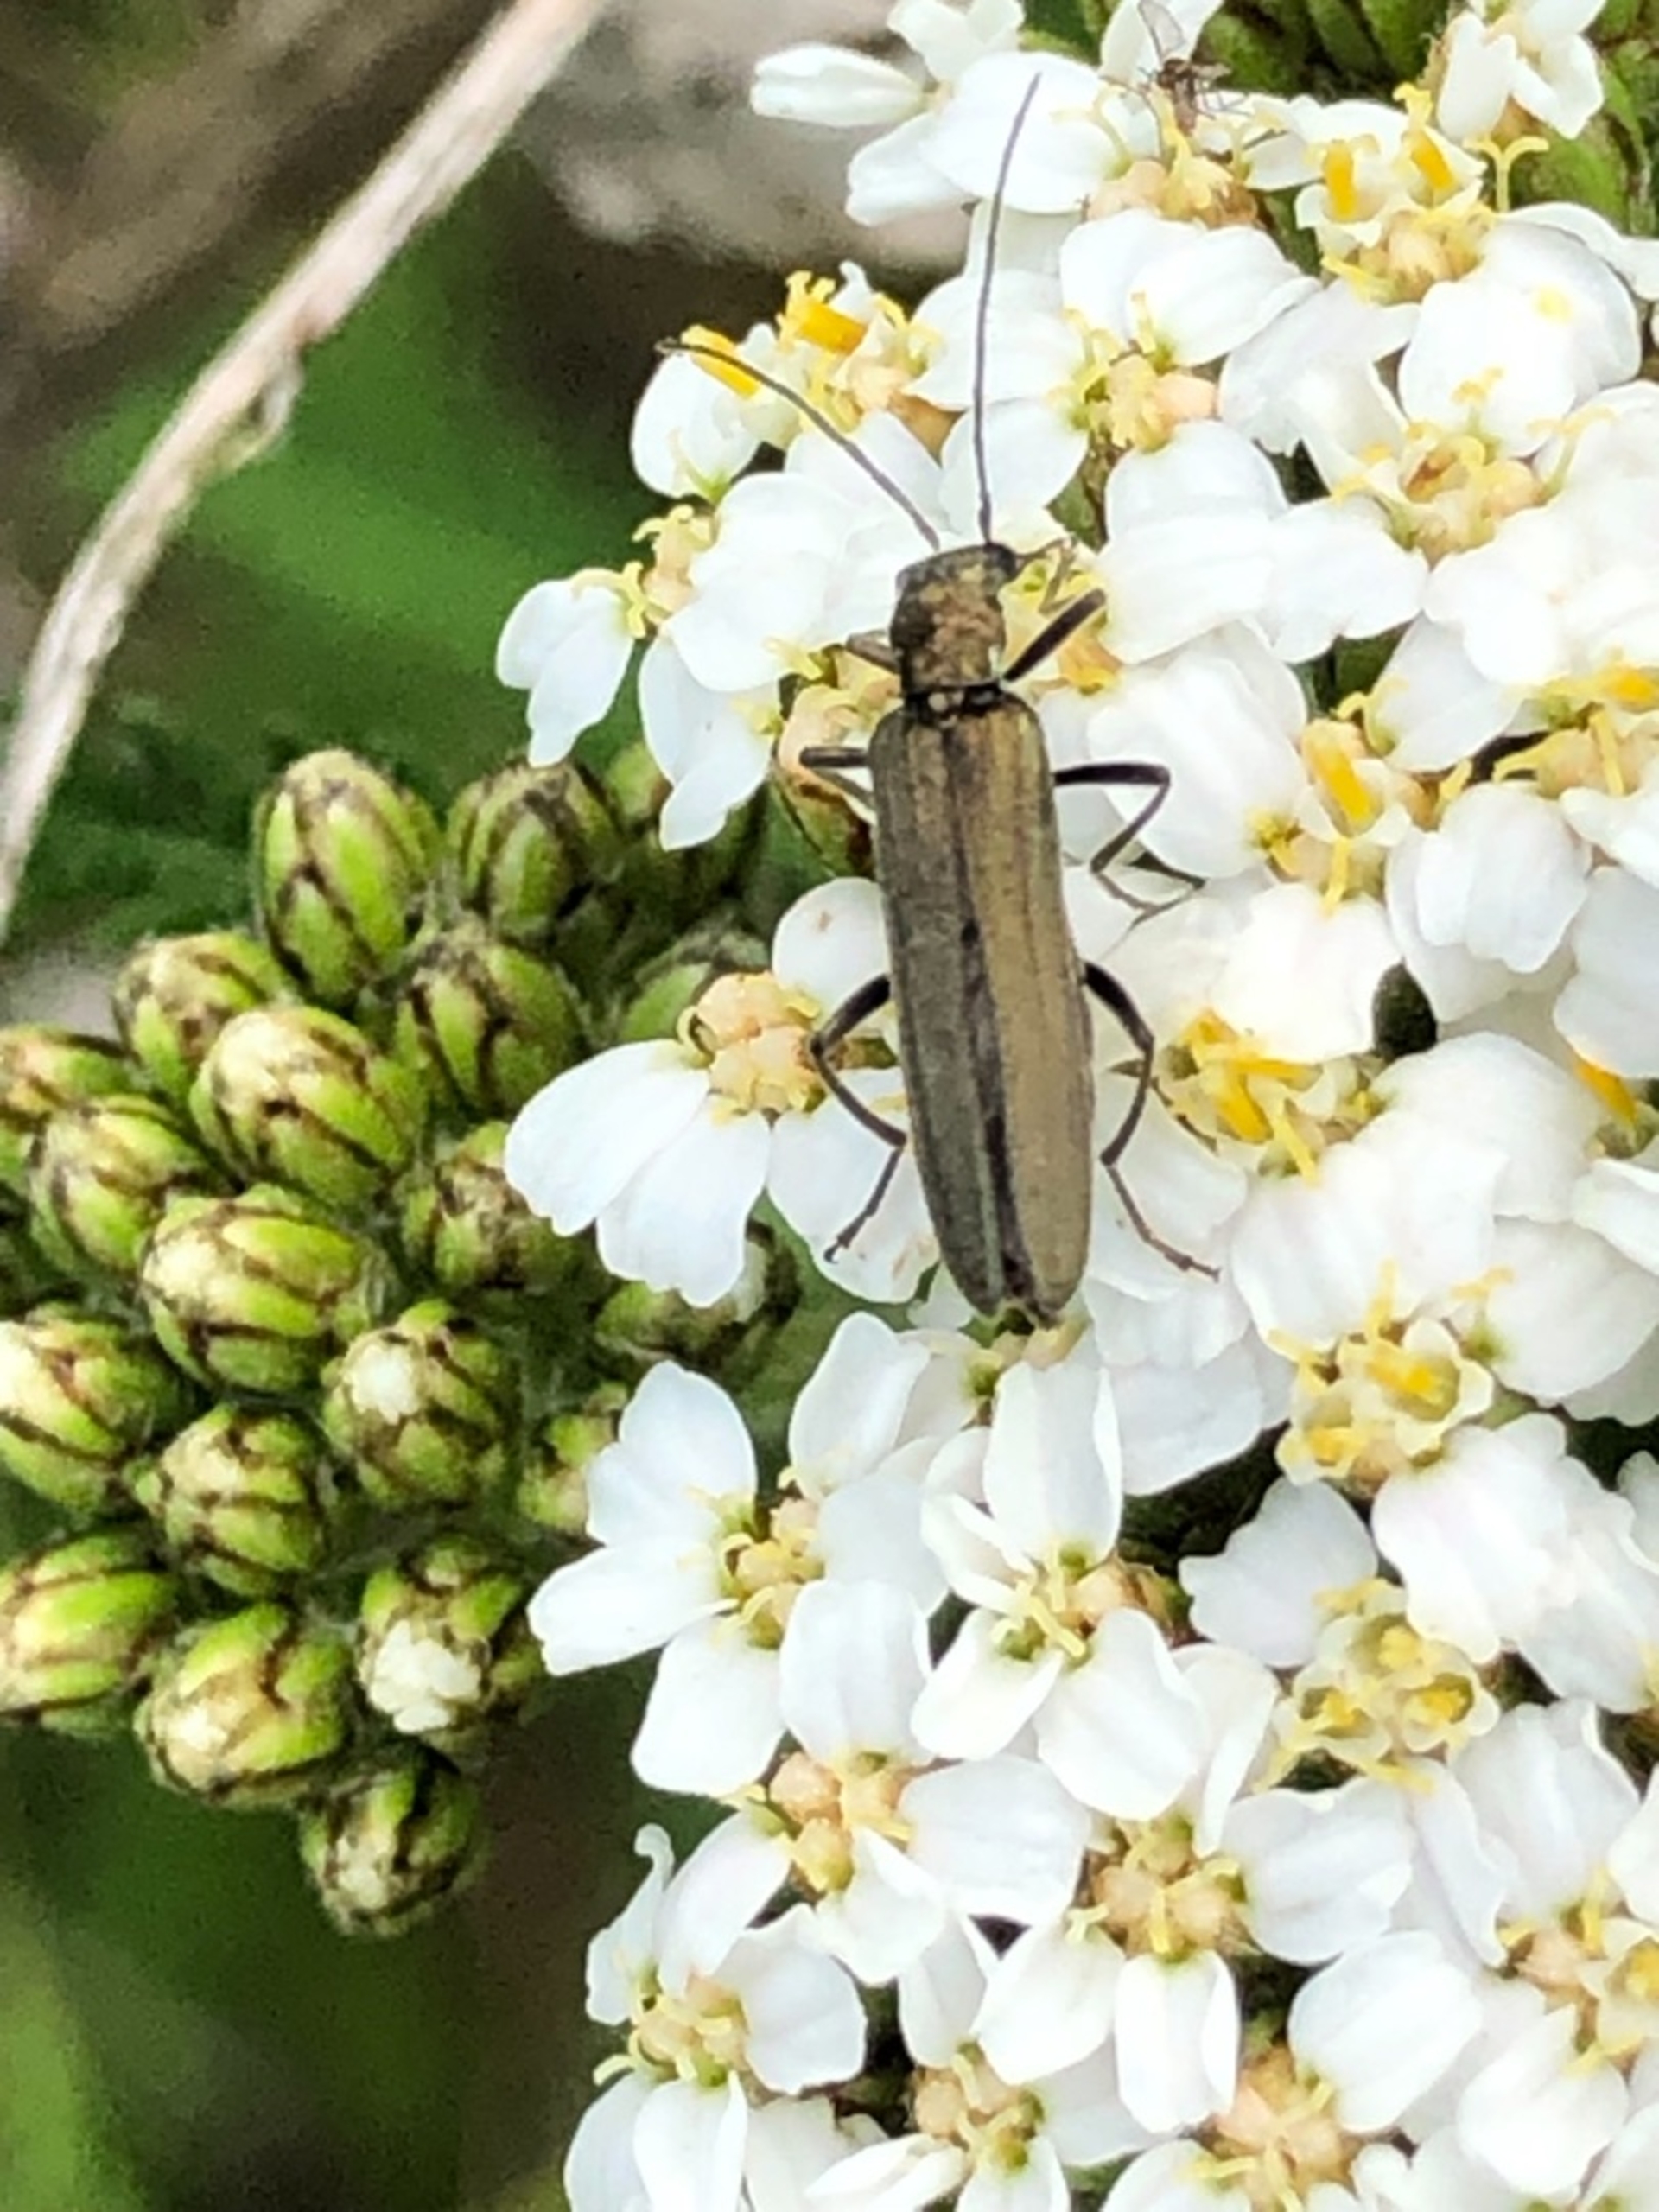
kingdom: Animalia
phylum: Arthropoda
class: Insecta
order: Coleoptera
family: Oedemeridae
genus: Oedemera
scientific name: Oedemera virescens
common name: Matgrøn solbille
